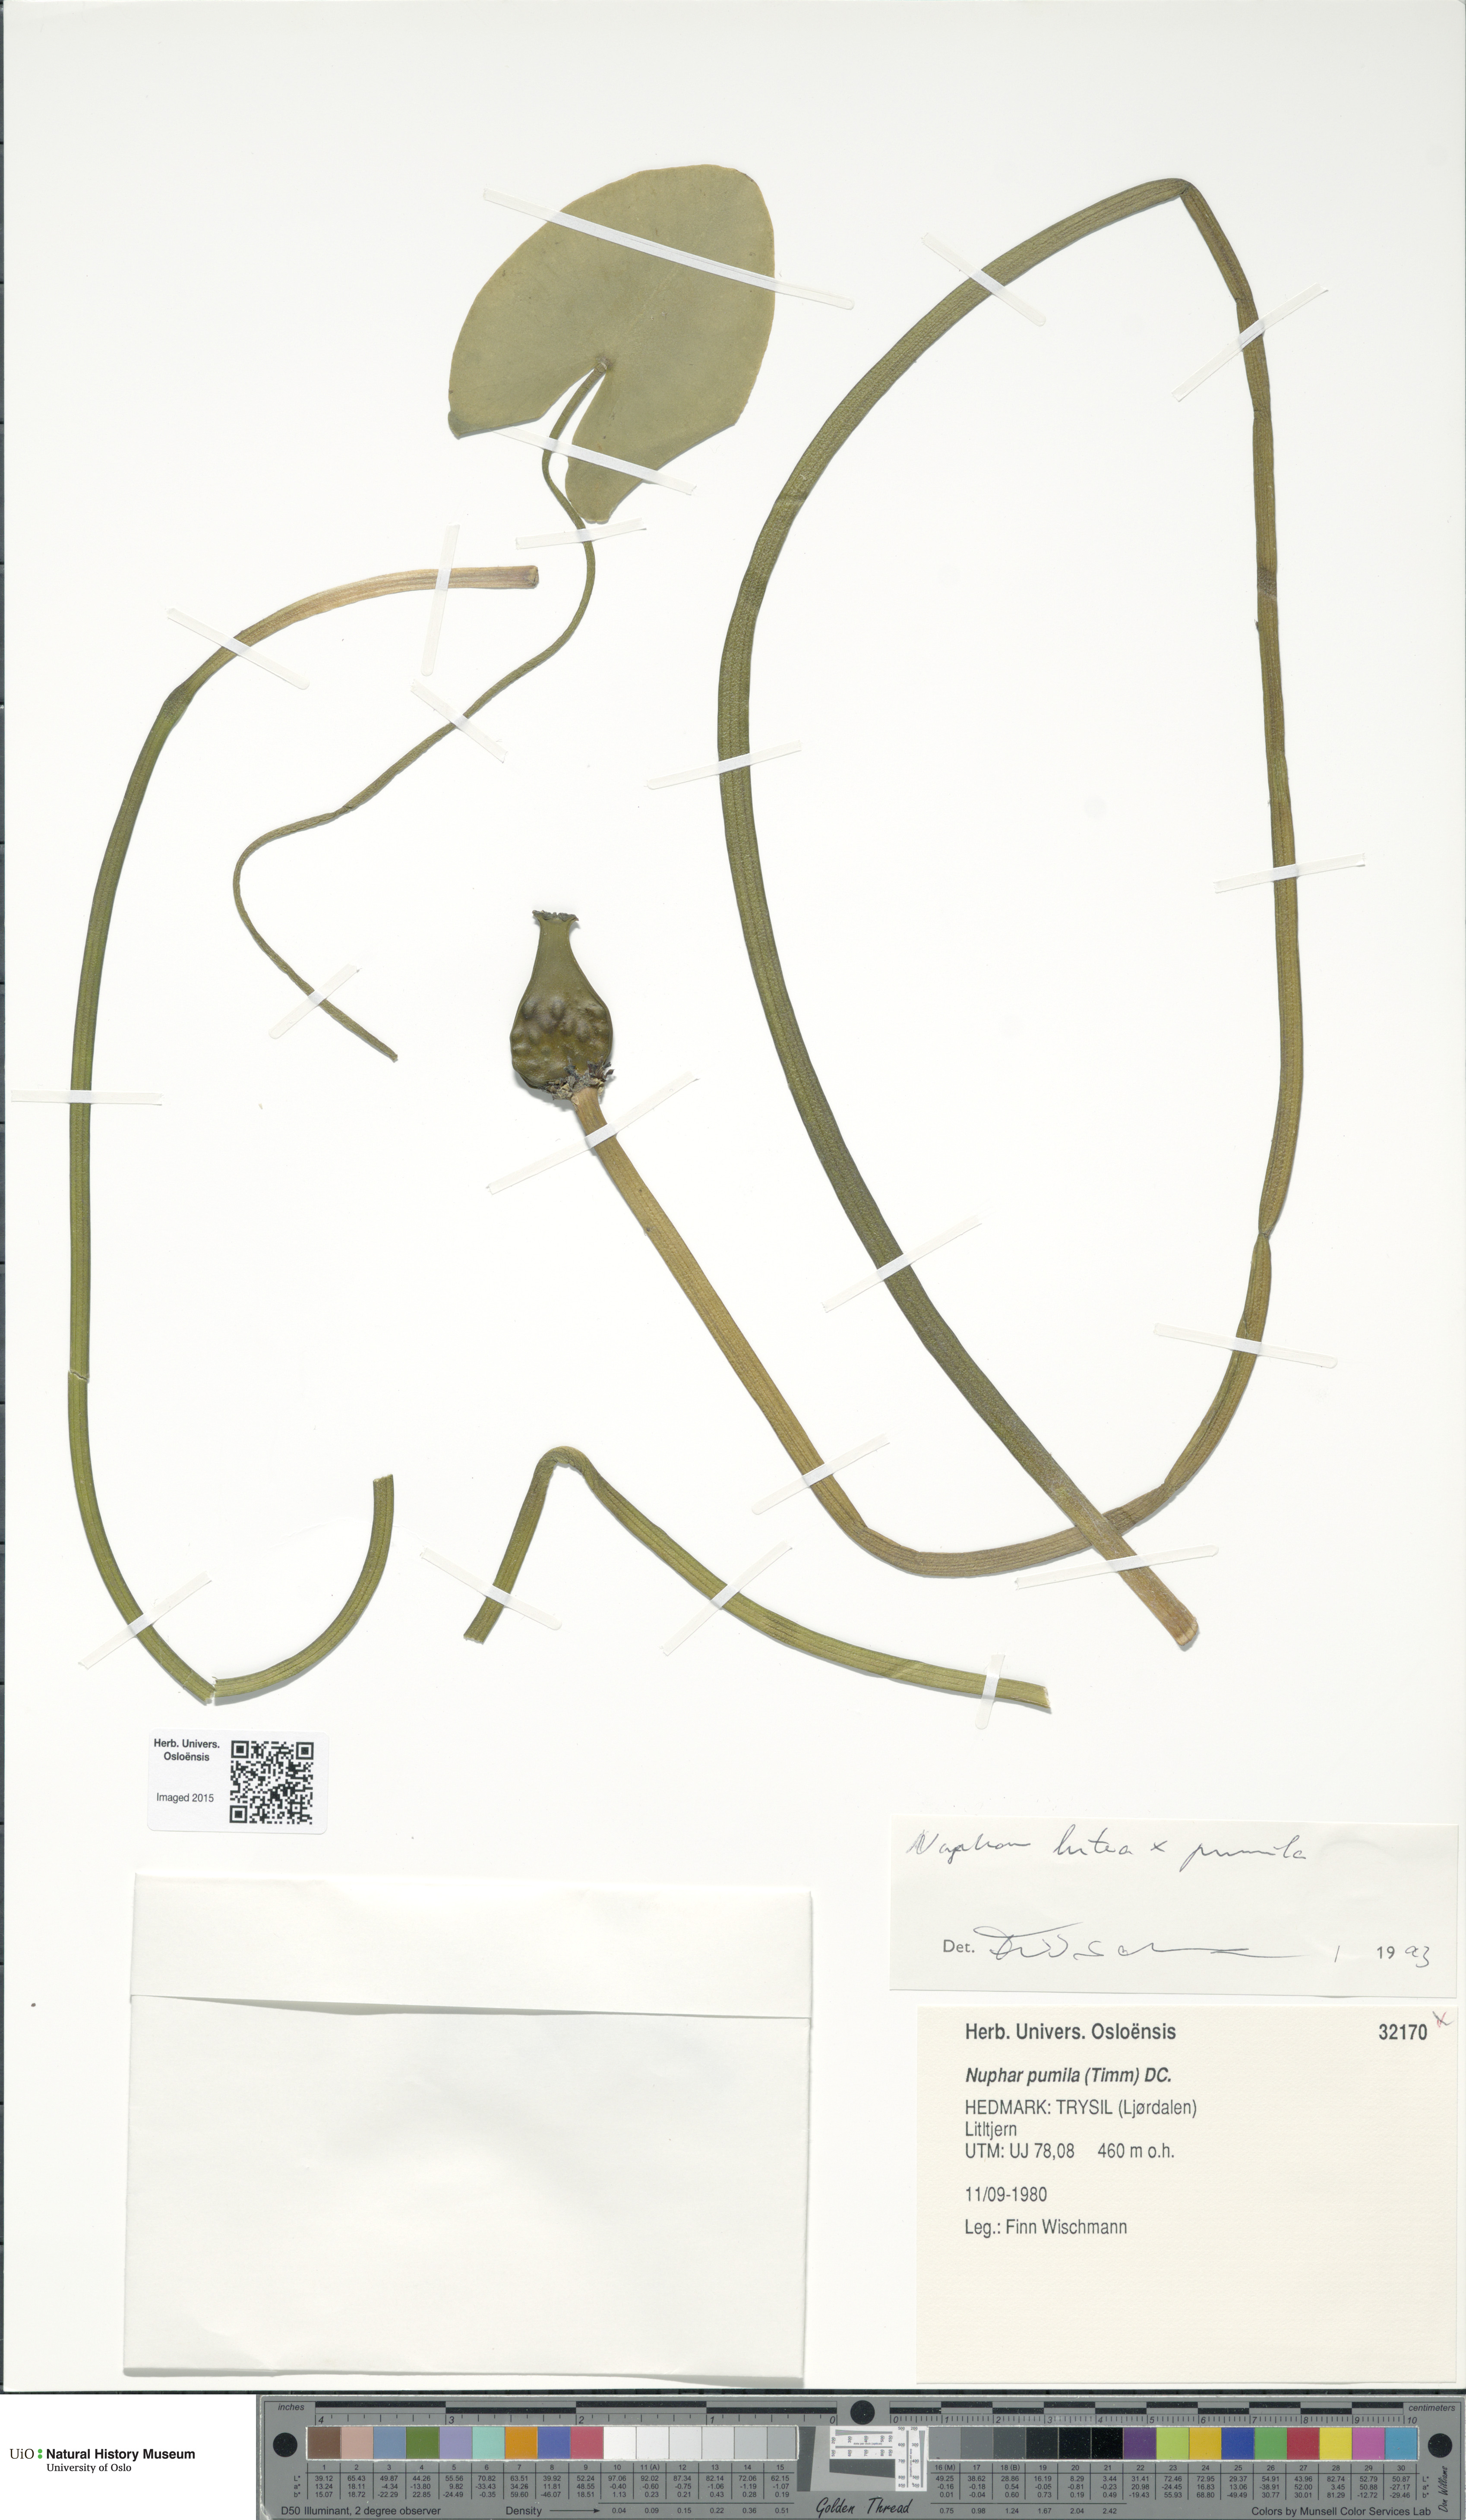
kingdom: Plantae
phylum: Tracheophyta
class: Magnoliopsida
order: Nymphaeales
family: Nymphaeaceae
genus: Nuphar
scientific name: Nuphar
